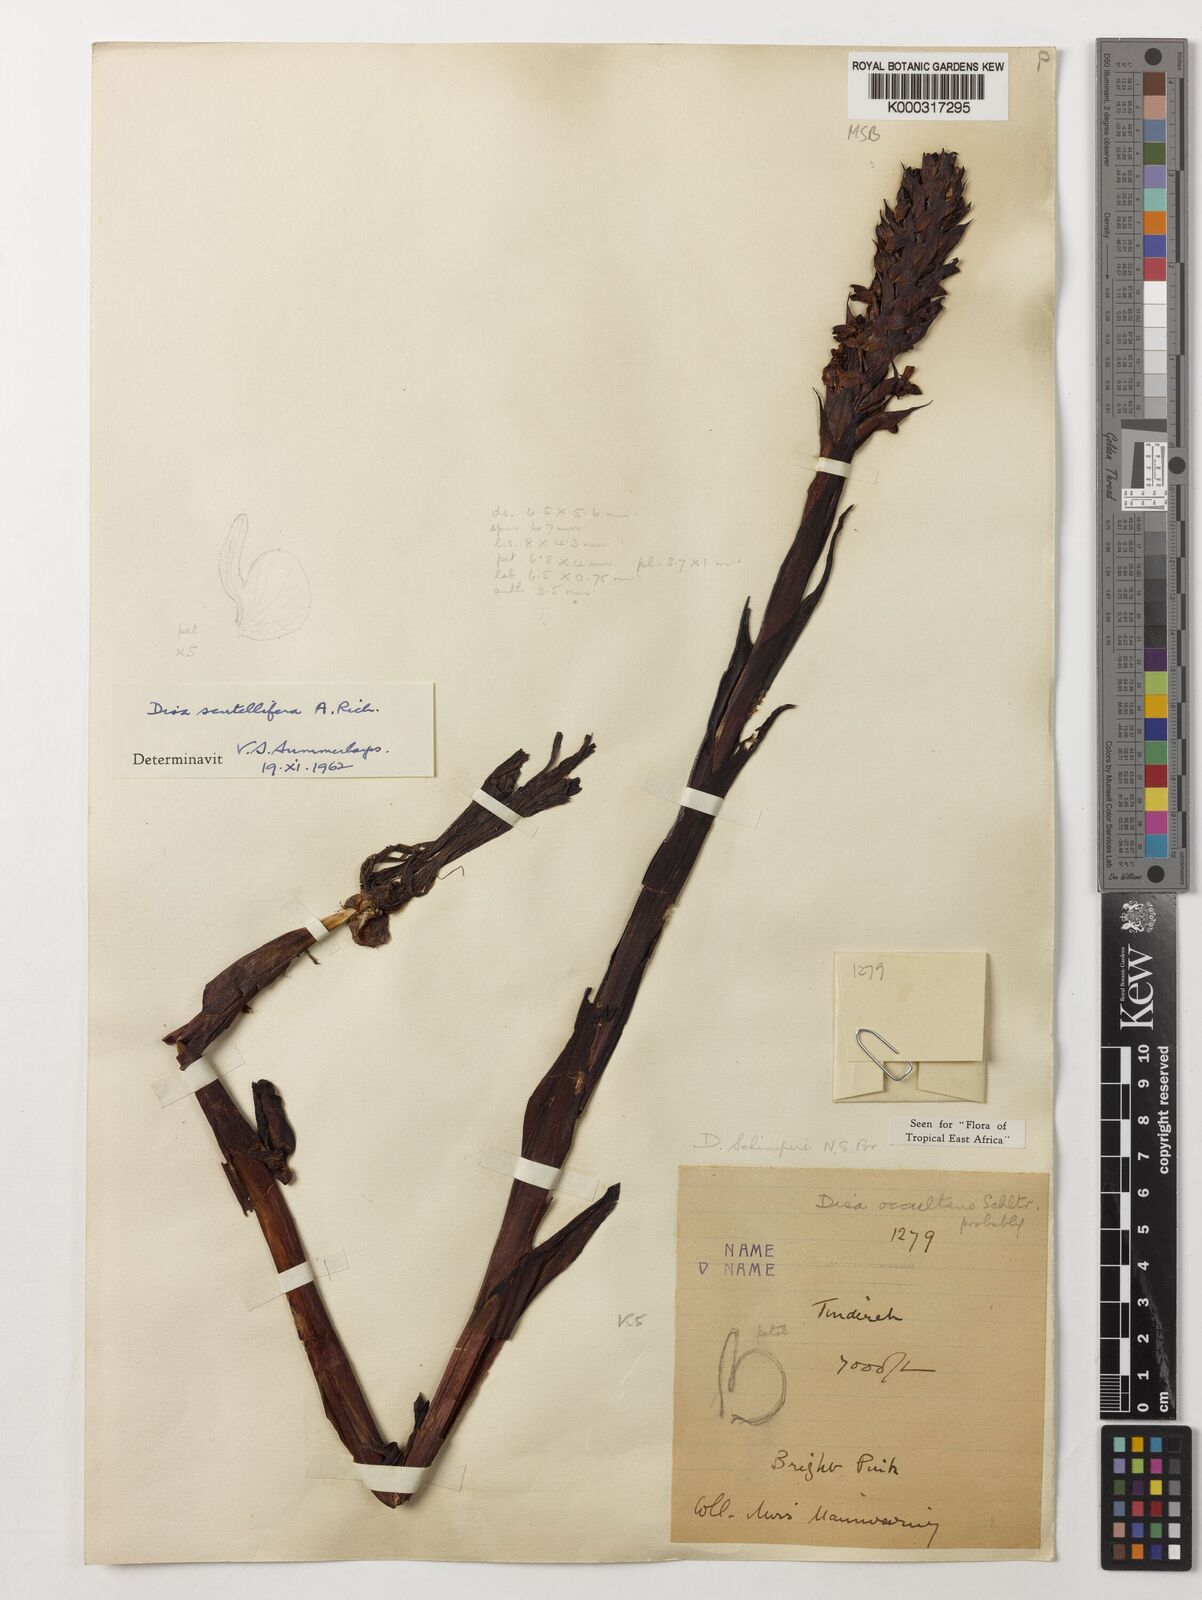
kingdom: Plantae
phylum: Tracheophyta
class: Liliopsida
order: Asparagales
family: Orchidaceae
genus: Disa
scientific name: Disa scutellifera
